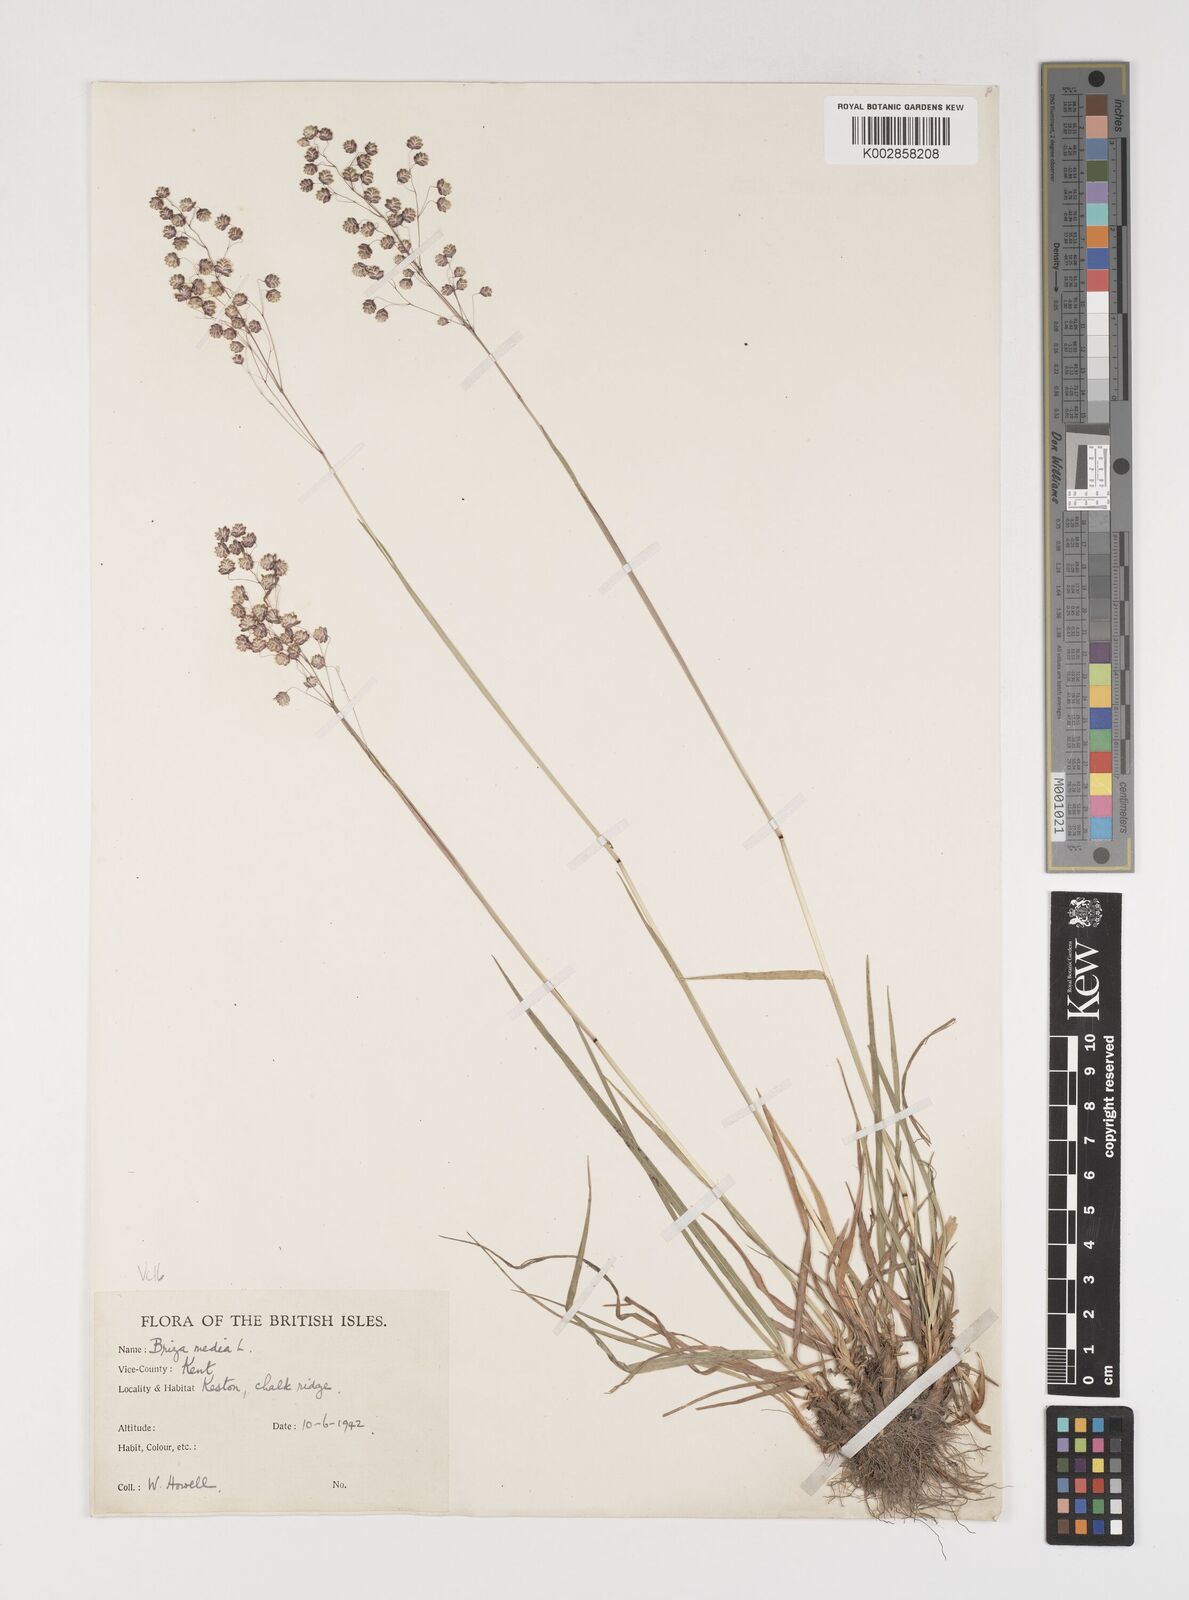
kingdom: Plantae
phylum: Tracheophyta
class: Liliopsida
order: Poales
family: Poaceae
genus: Briza
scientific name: Briza media
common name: Quaking grass
